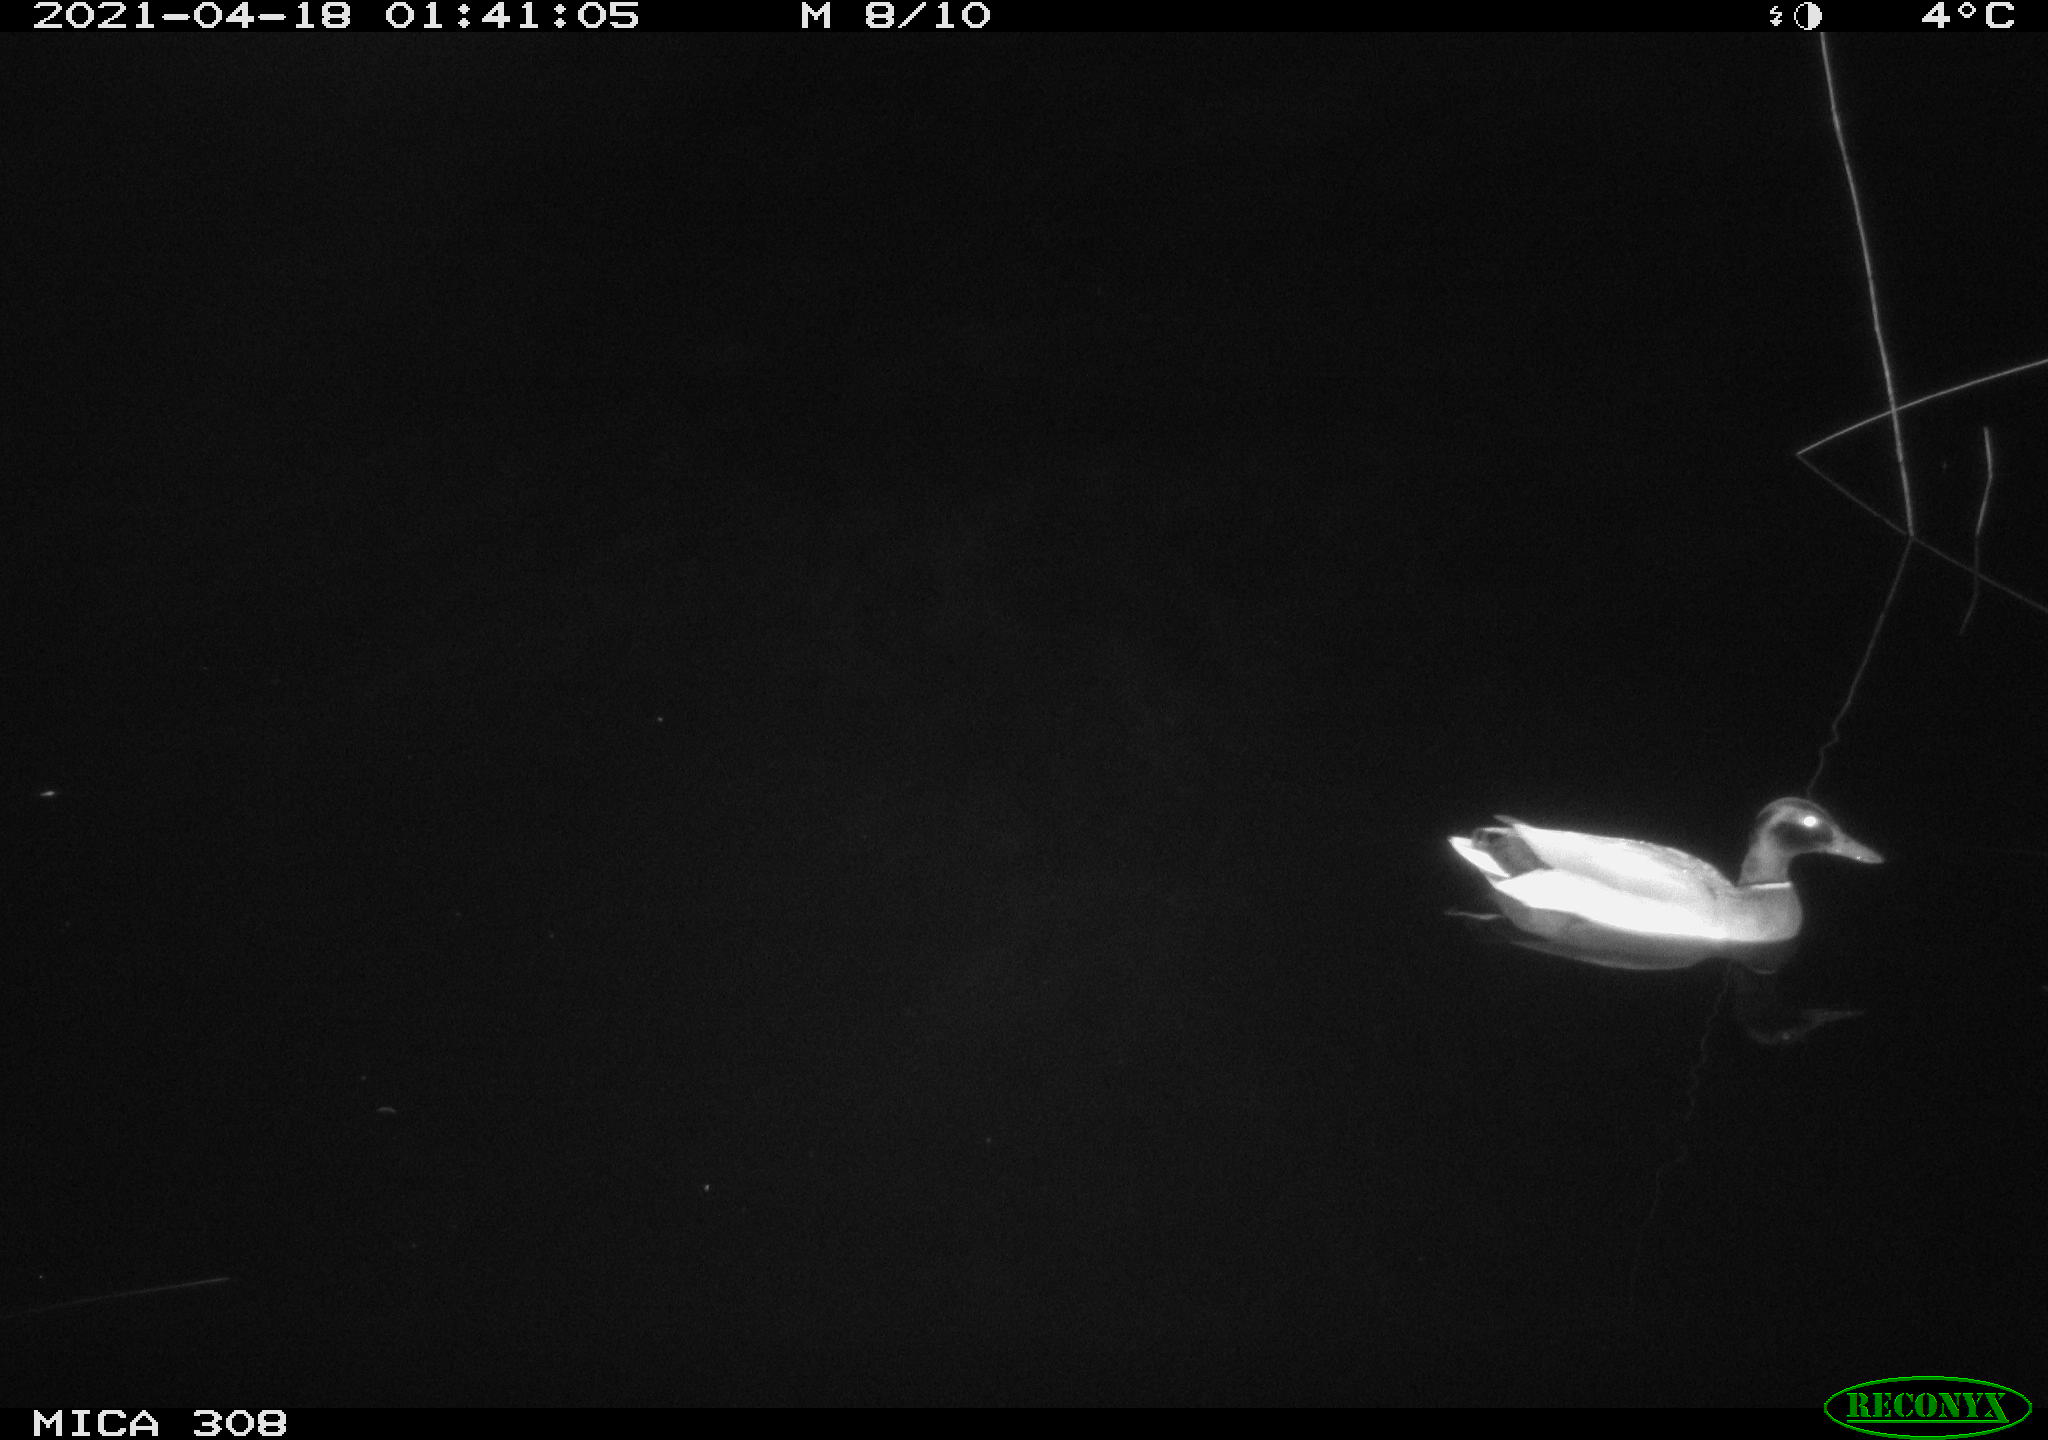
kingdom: Animalia
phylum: Chordata
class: Aves
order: Anseriformes
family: Anatidae
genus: Anas
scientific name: Anas platyrhynchos
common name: Mallard
